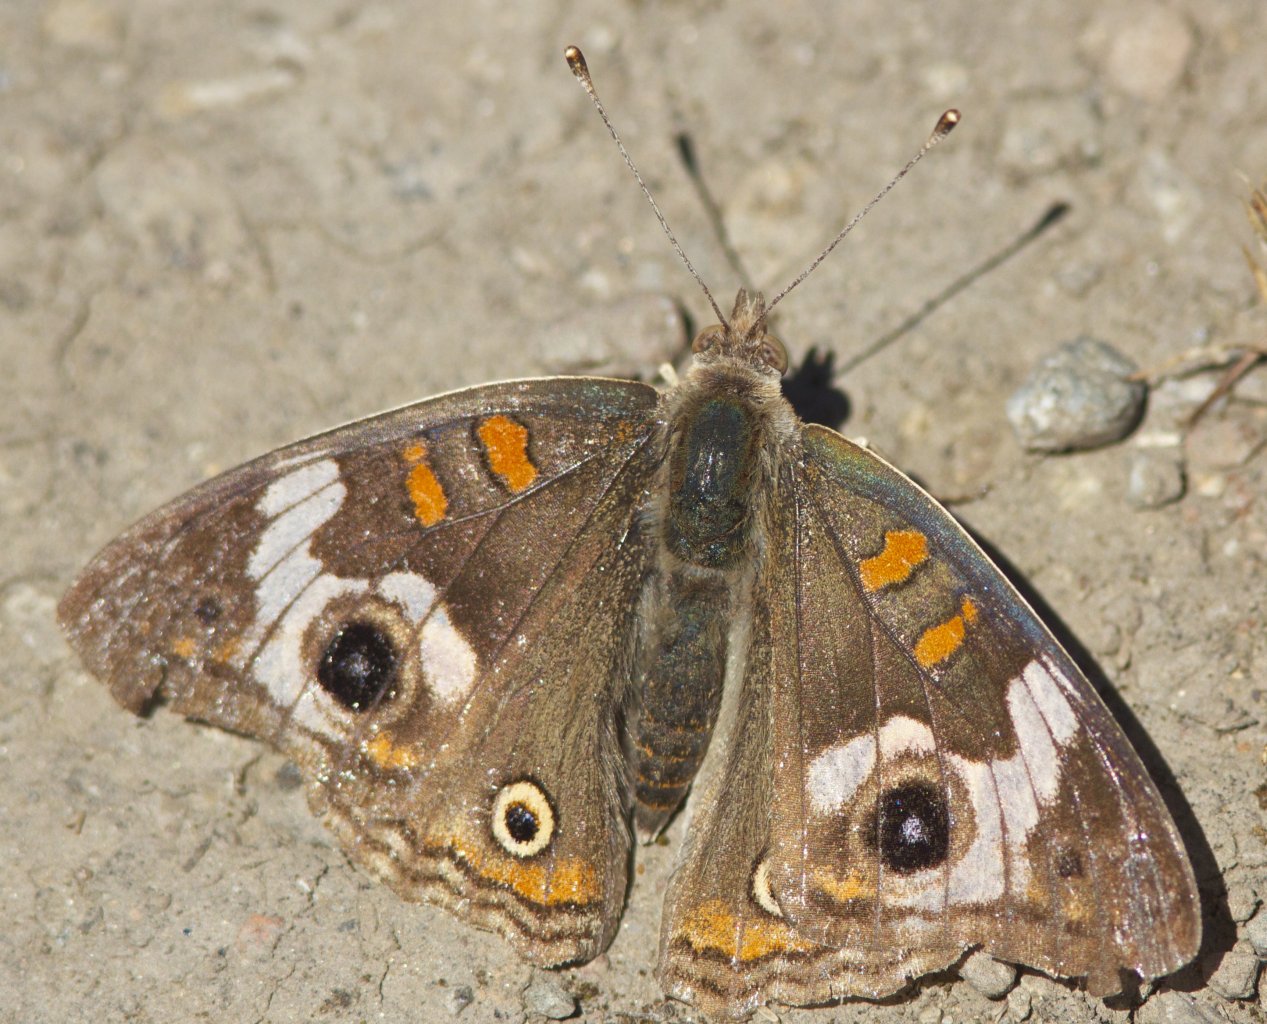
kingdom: Animalia
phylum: Arthropoda
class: Insecta
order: Lepidoptera
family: Nymphalidae
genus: Junonia
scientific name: Junonia coenia
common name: Common Buckeye
